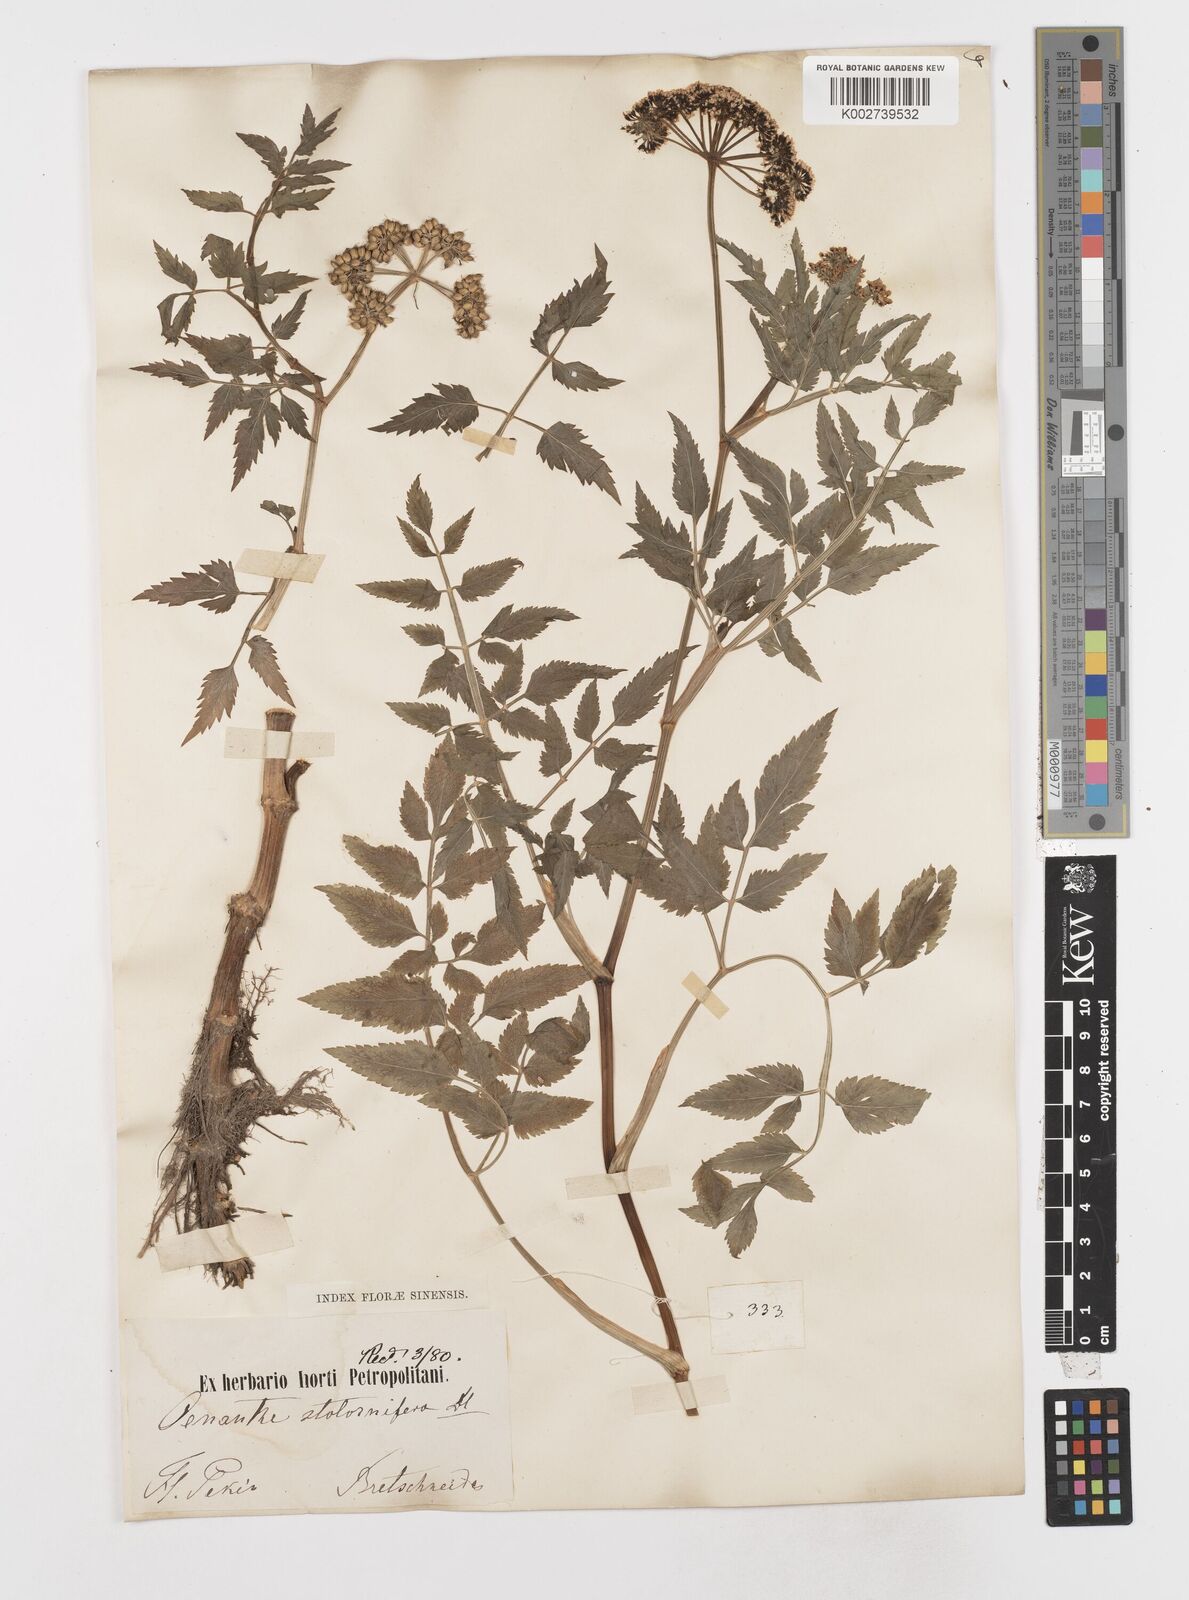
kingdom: Plantae
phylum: Tracheophyta
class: Magnoliopsida
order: Apiales
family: Apiaceae
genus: Oenanthe
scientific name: Oenanthe javanica
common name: Java water-dropwort
